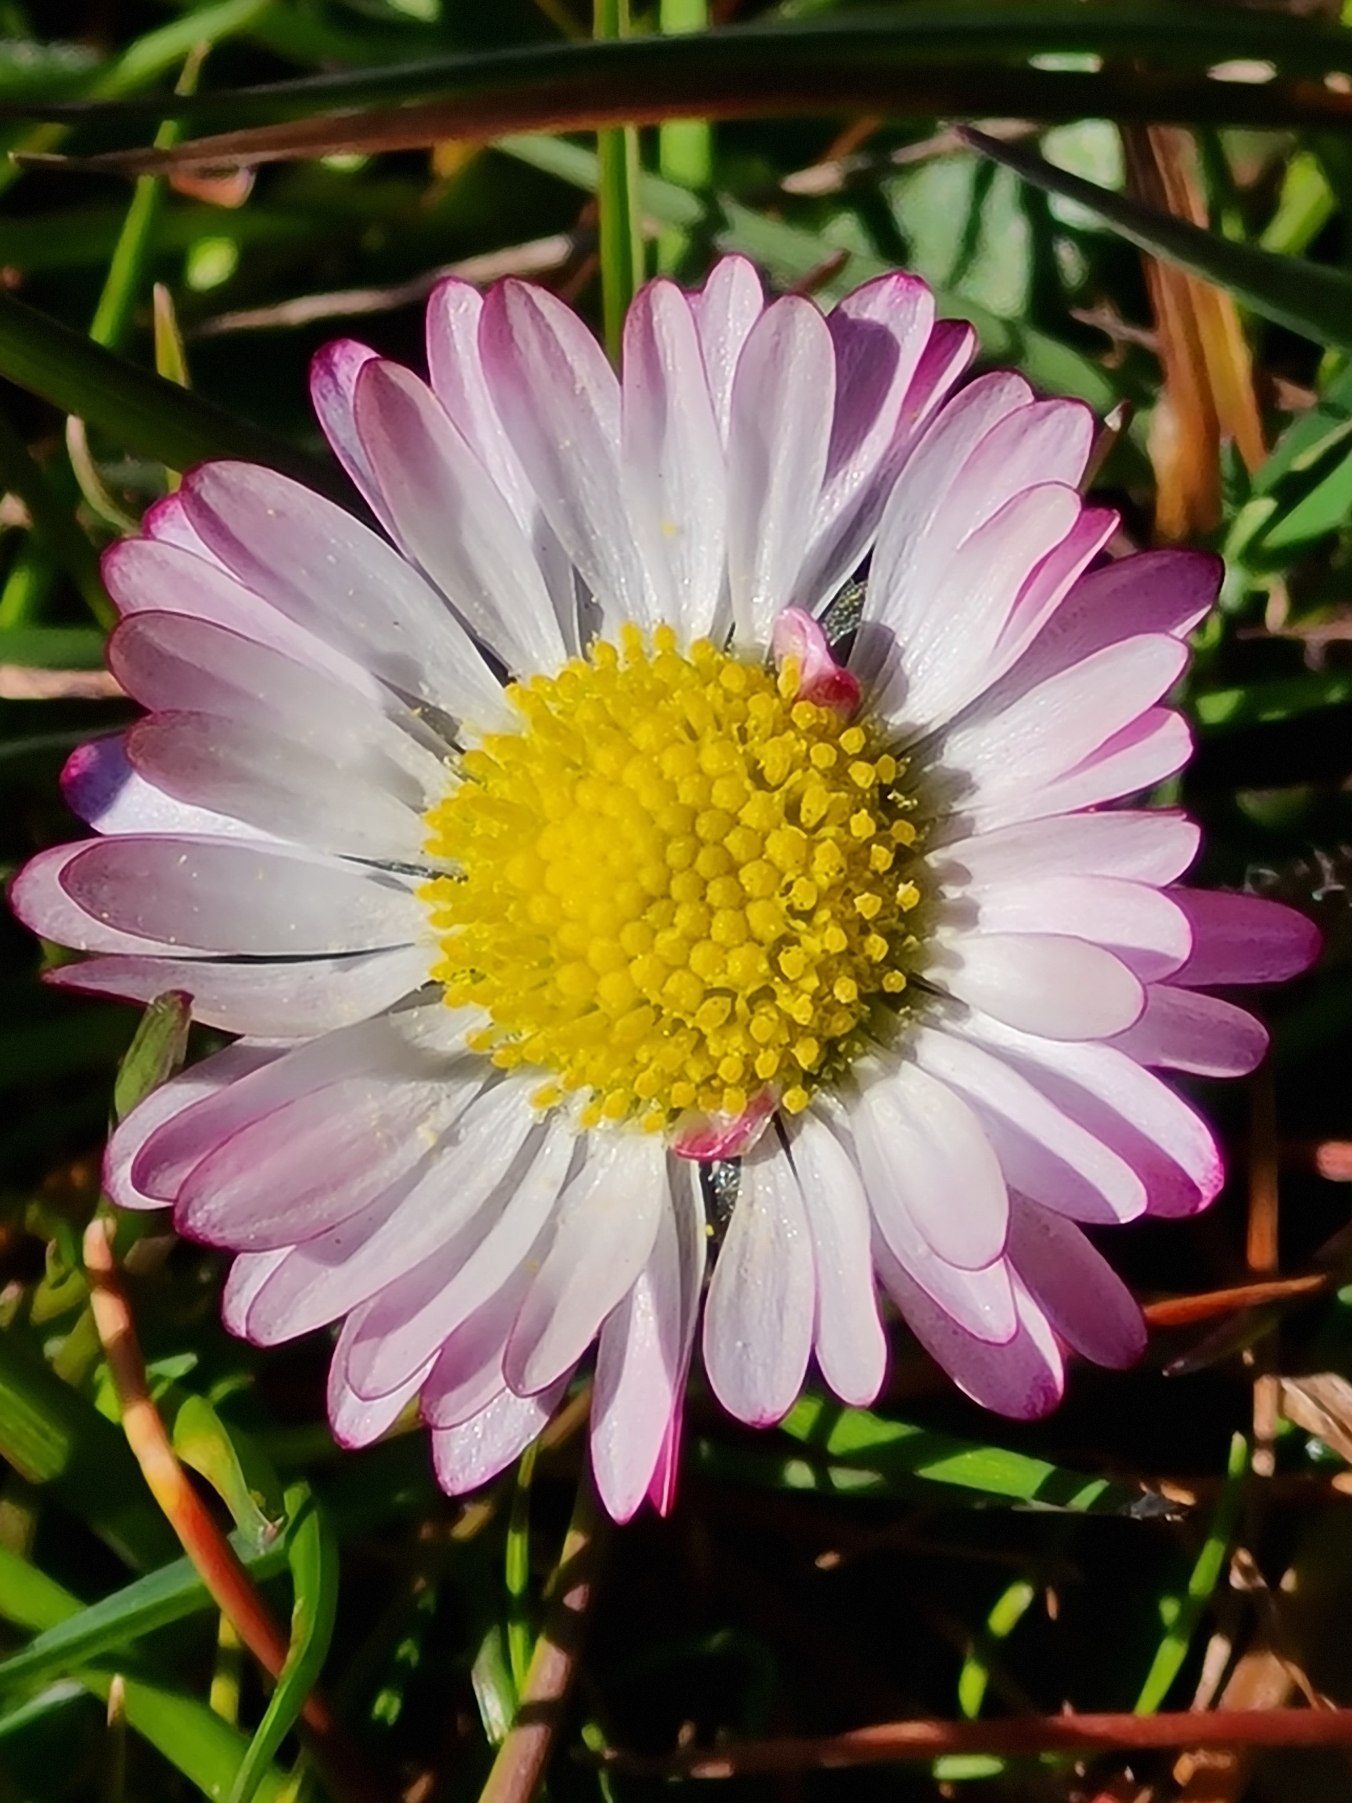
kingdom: Plantae
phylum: Tracheophyta
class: Magnoliopsida
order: Asterales
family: Asteraceae
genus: Bellis
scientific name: Bellis perennis
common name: Tusindfryd
